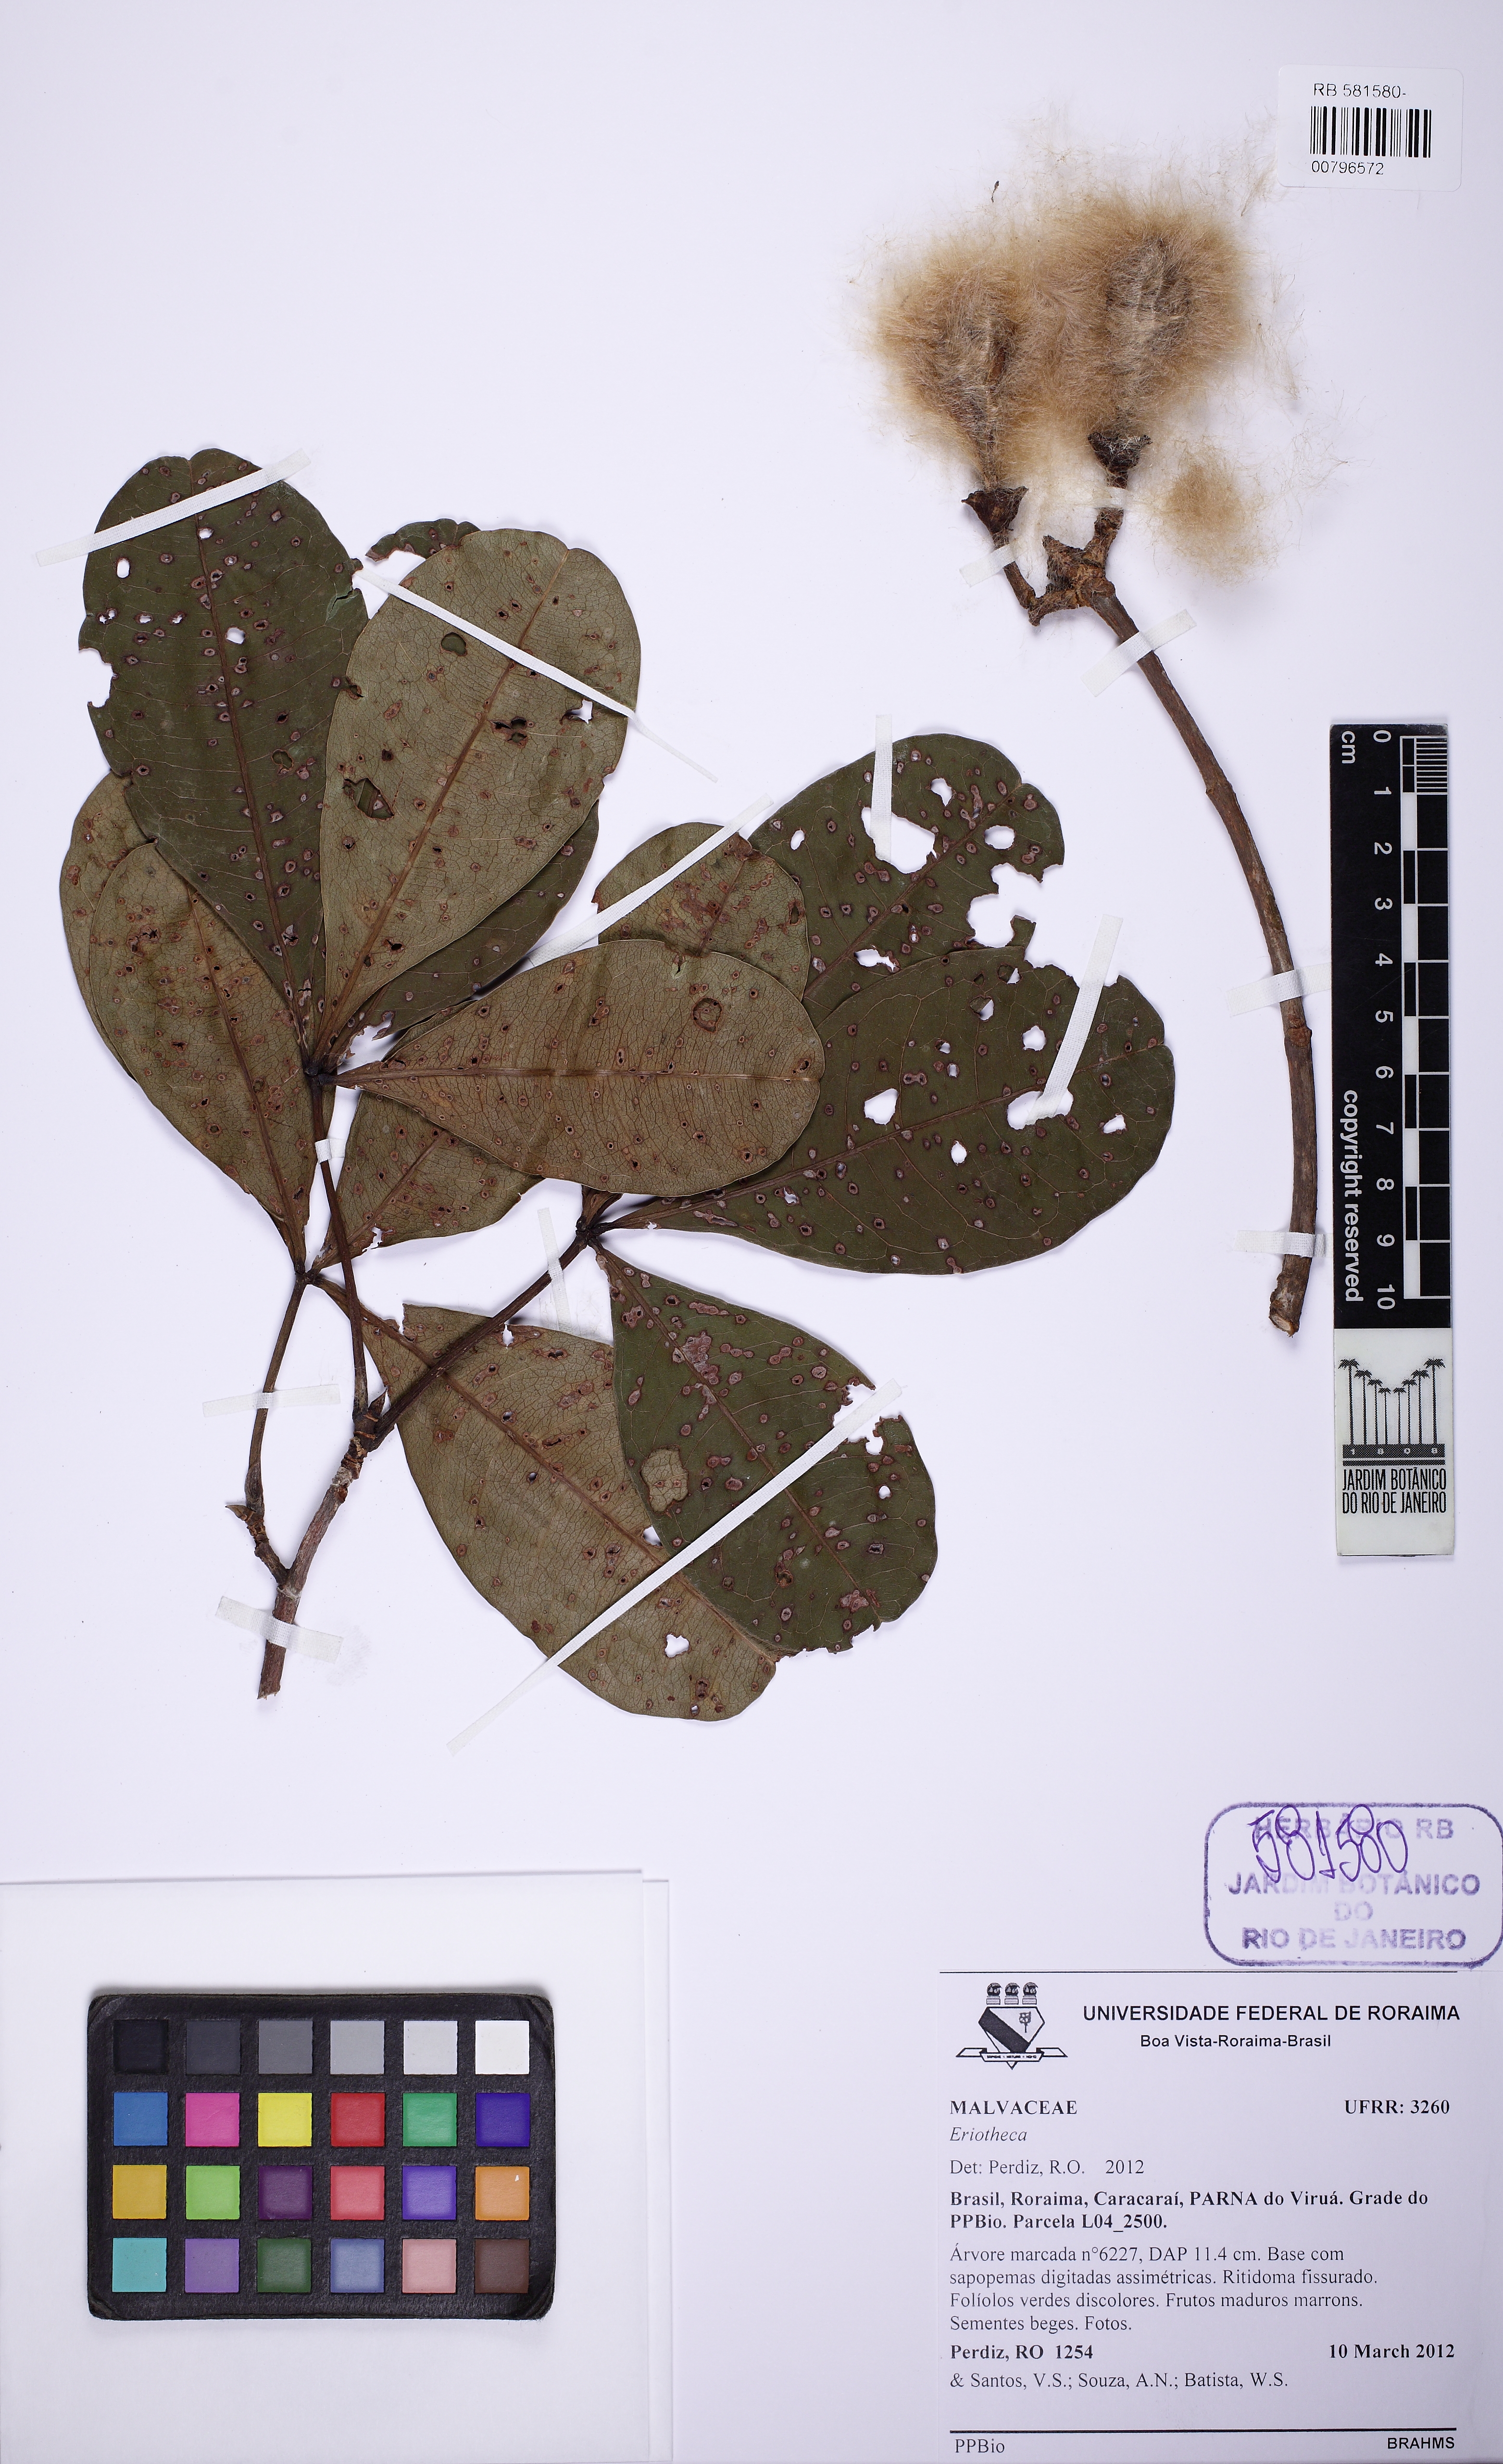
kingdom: Plantae
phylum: Tracheophyta
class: Magnoliopsida
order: Malvales
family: Malvaceae
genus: Eriotheca
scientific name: Eriotheca globosa
